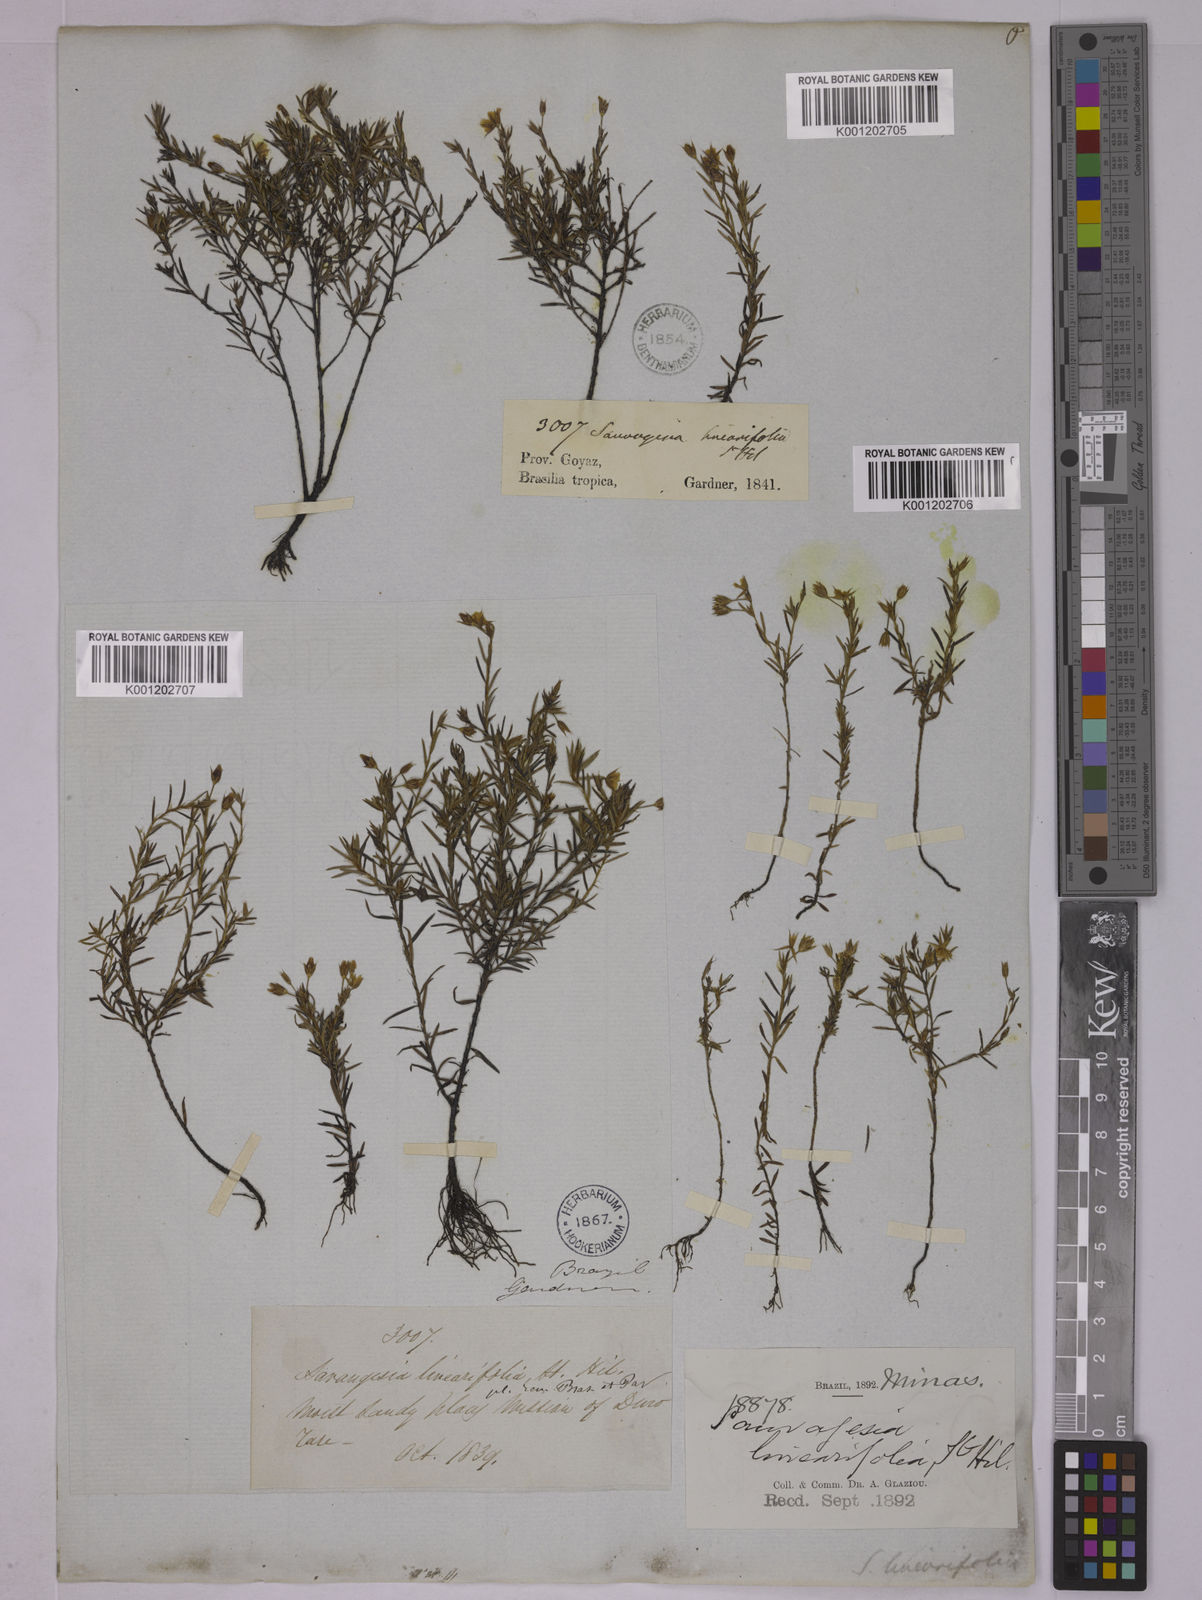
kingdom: Plantae
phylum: Tracheophyta
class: Magnoliopsida
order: Malpighiales
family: Ochnaceae
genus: Sauvagesia
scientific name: Sauvagesia linearifolia
